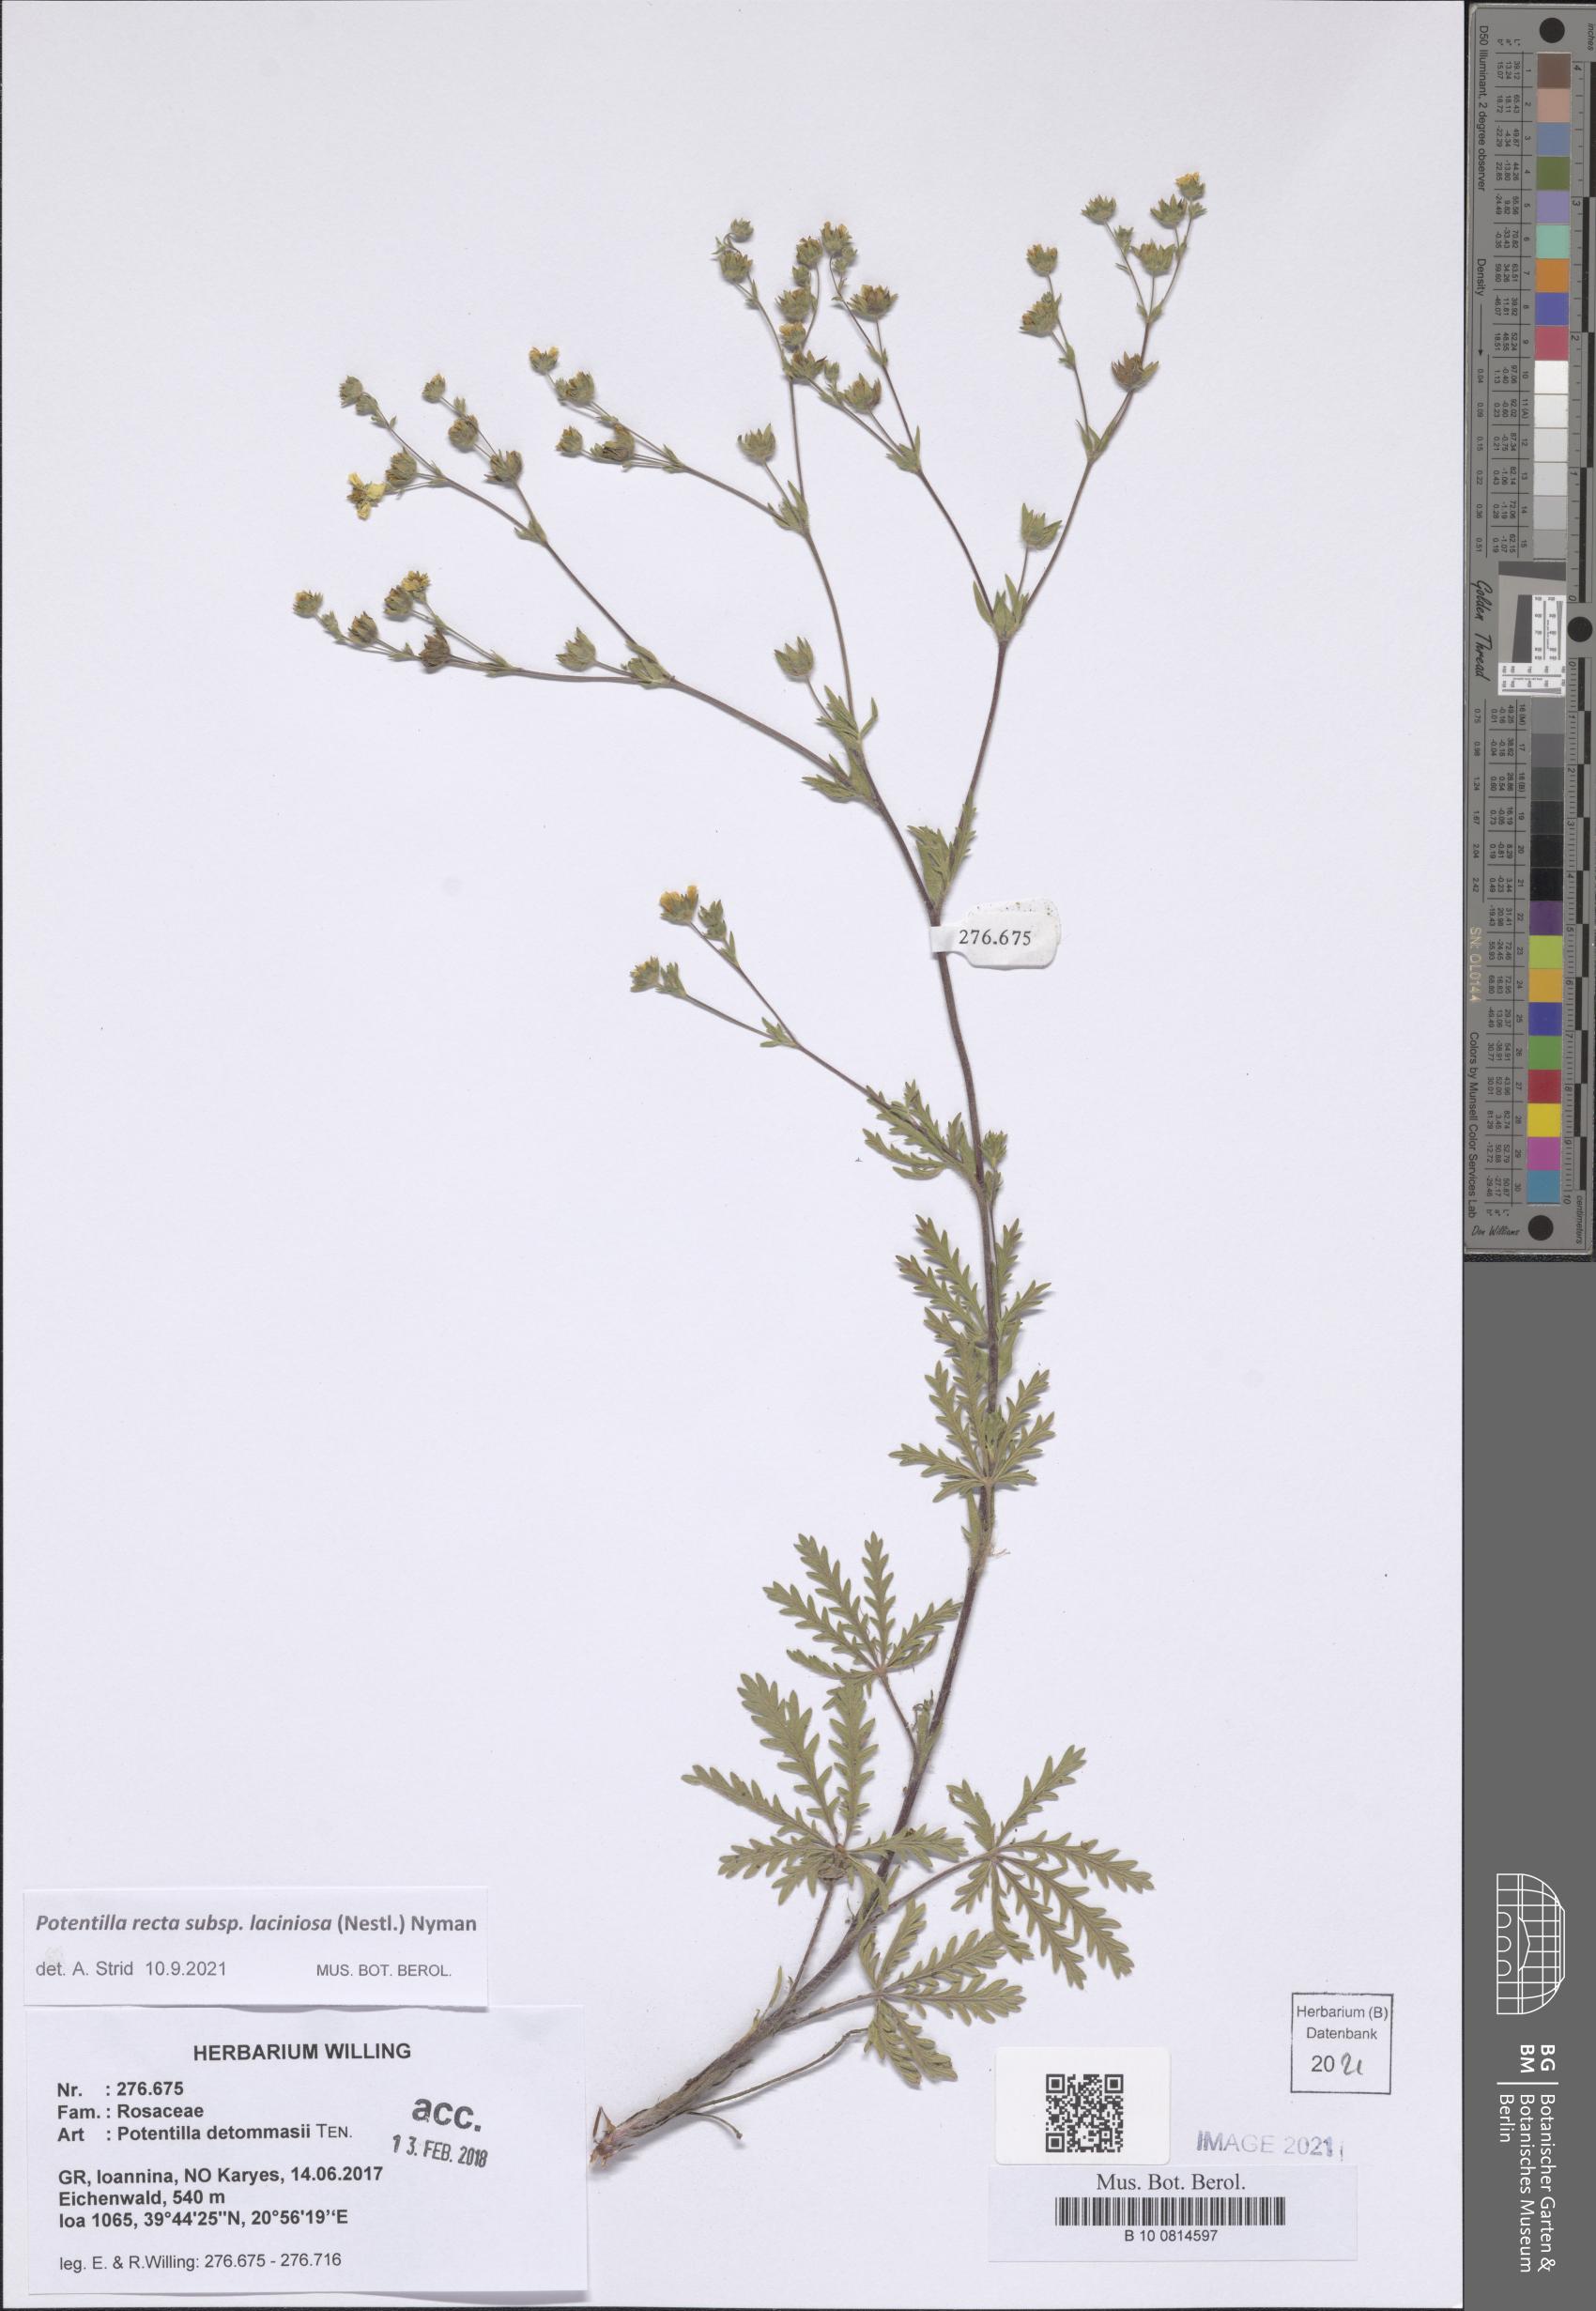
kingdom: Plantae
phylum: Tracheophyta
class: Magnoliopsida
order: Rosales
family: Rosaceae
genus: Potentilla
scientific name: Potentilla recta
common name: Sulphur cinquefoil
